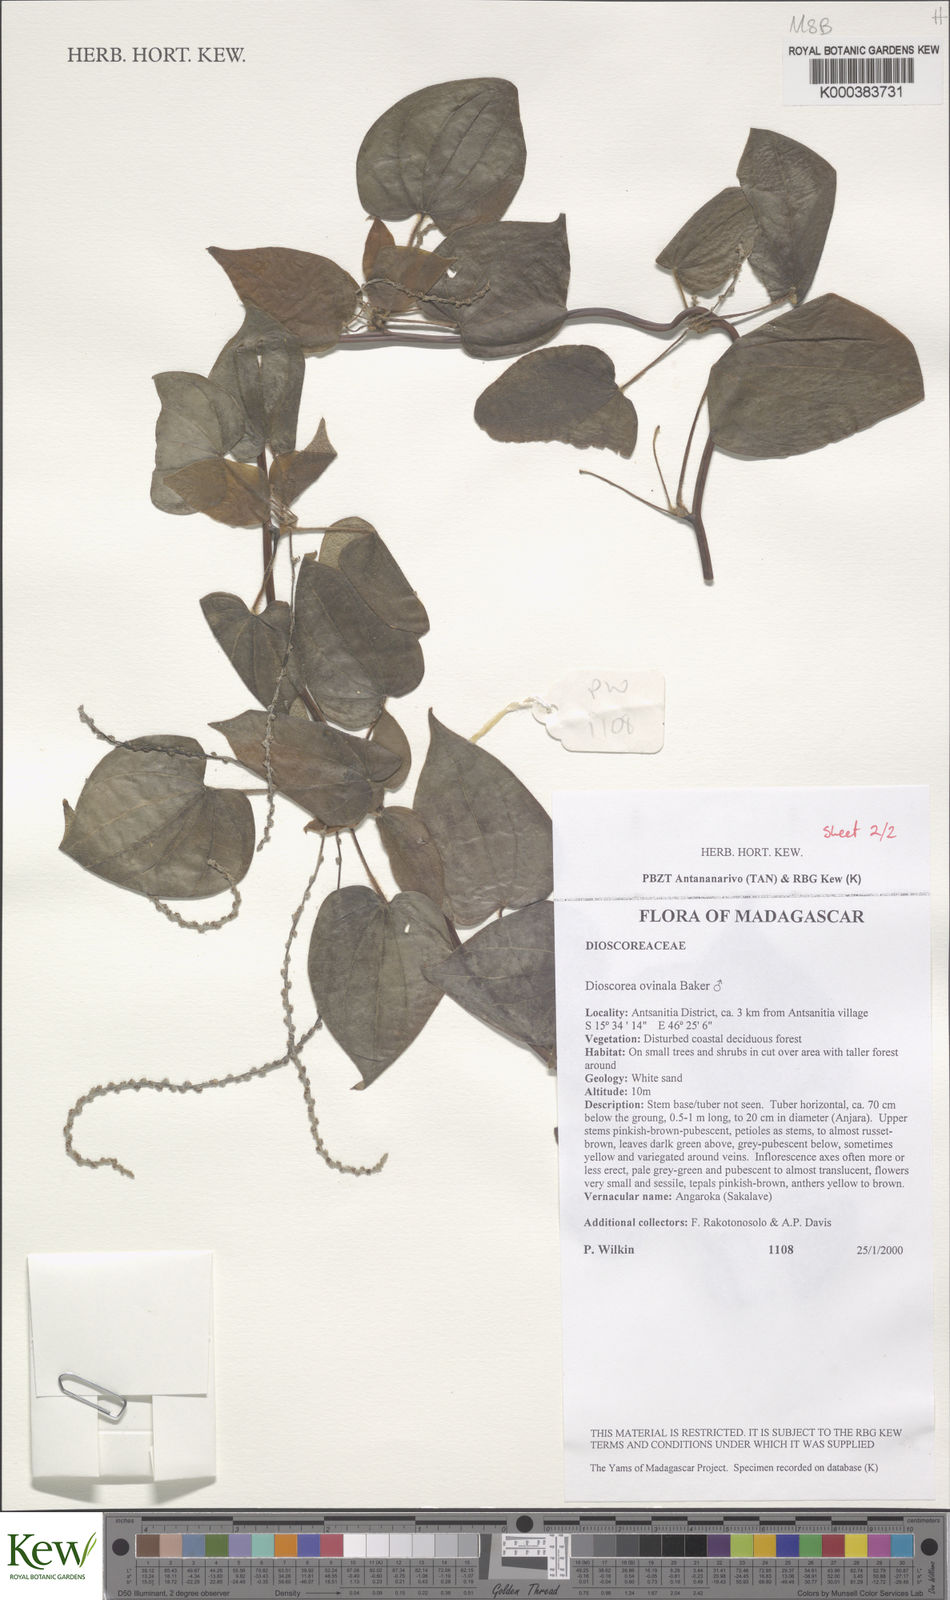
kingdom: Plantae
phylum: Tracheophyta
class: Liliopsida
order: Dioscoreales
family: Dioscoreaceae
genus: Dioscorea
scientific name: Dioscorea ovinala
